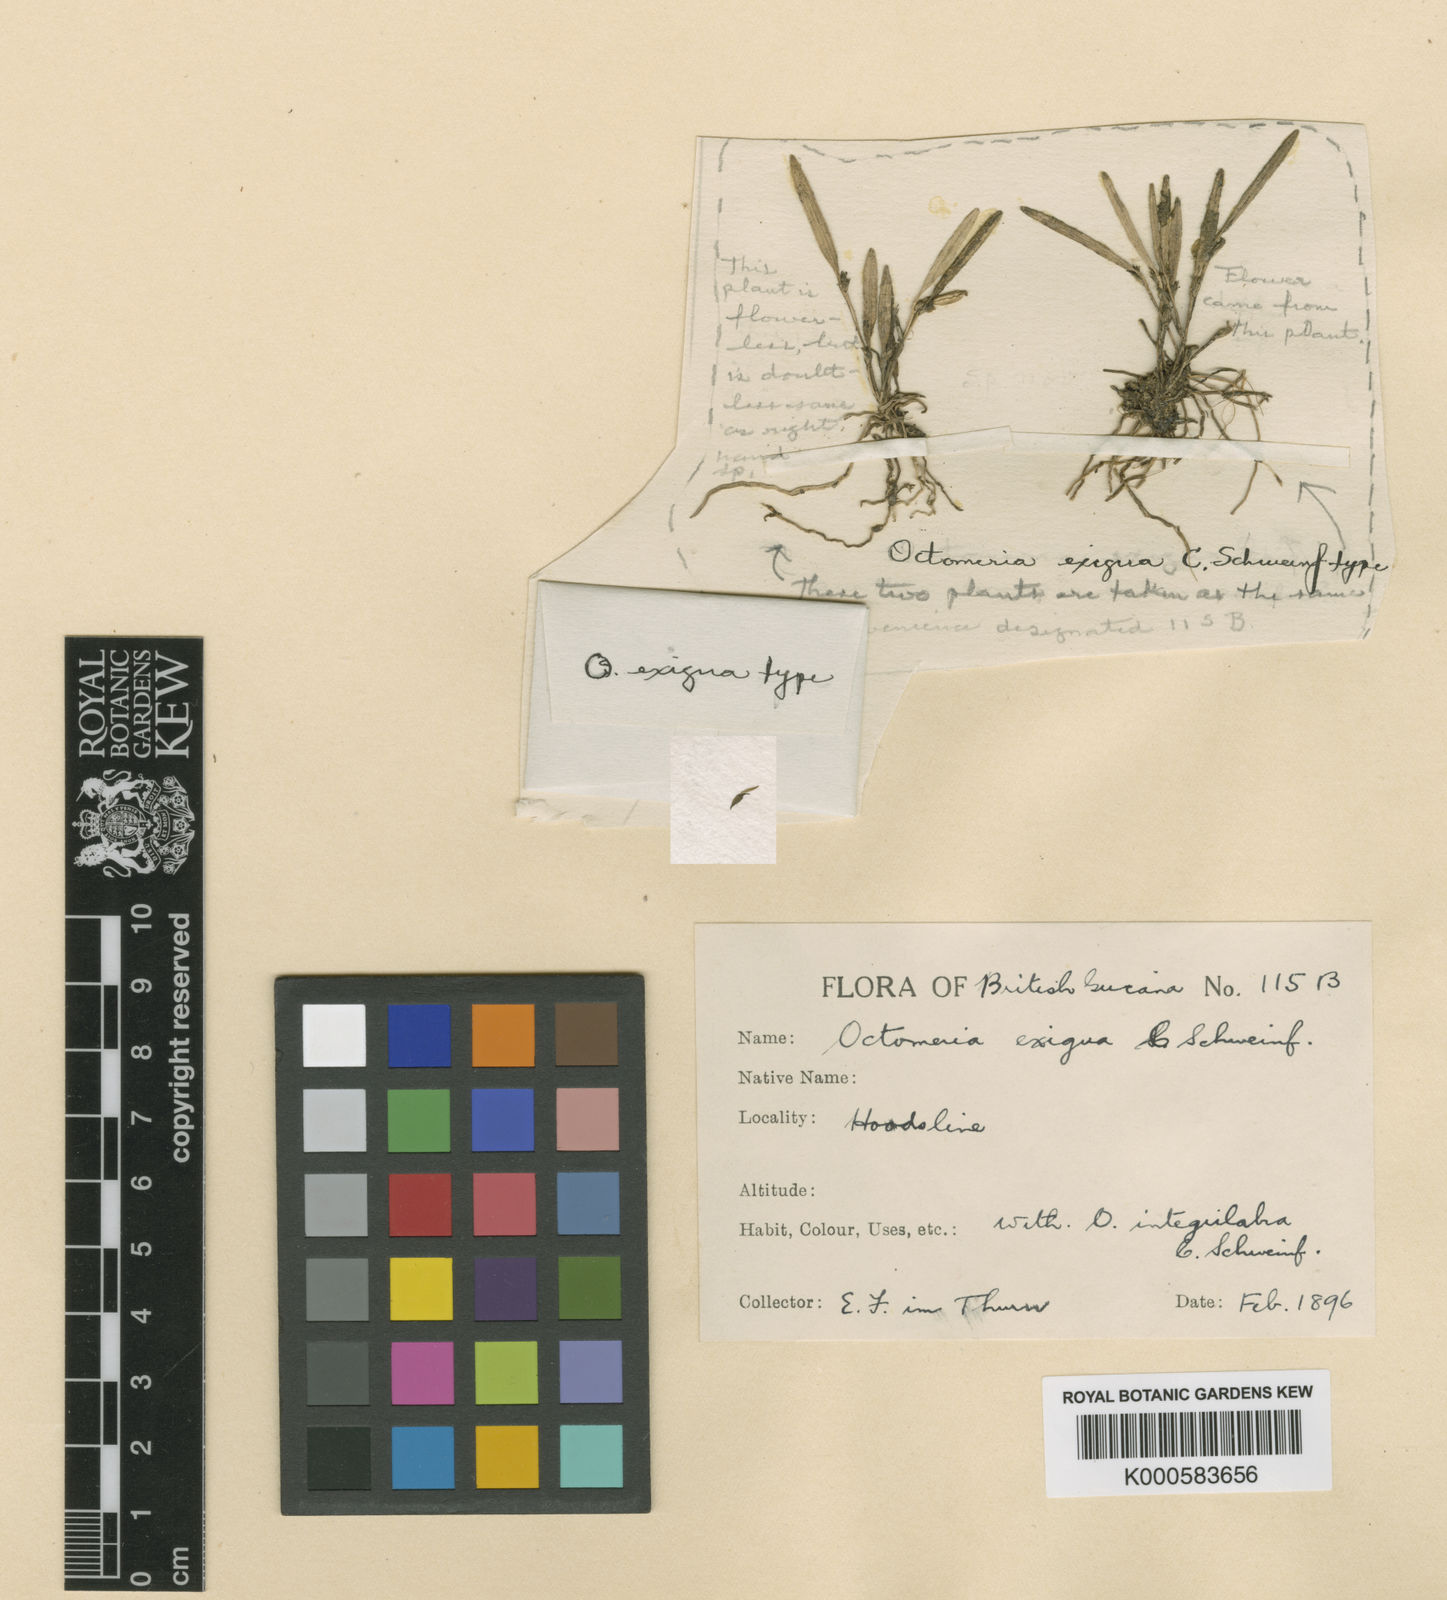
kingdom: Plantae
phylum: Tracheophyta
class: Liliopsida
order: Asparagales
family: Orchidaceae
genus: Octomeria
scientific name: Octomeria exigua
